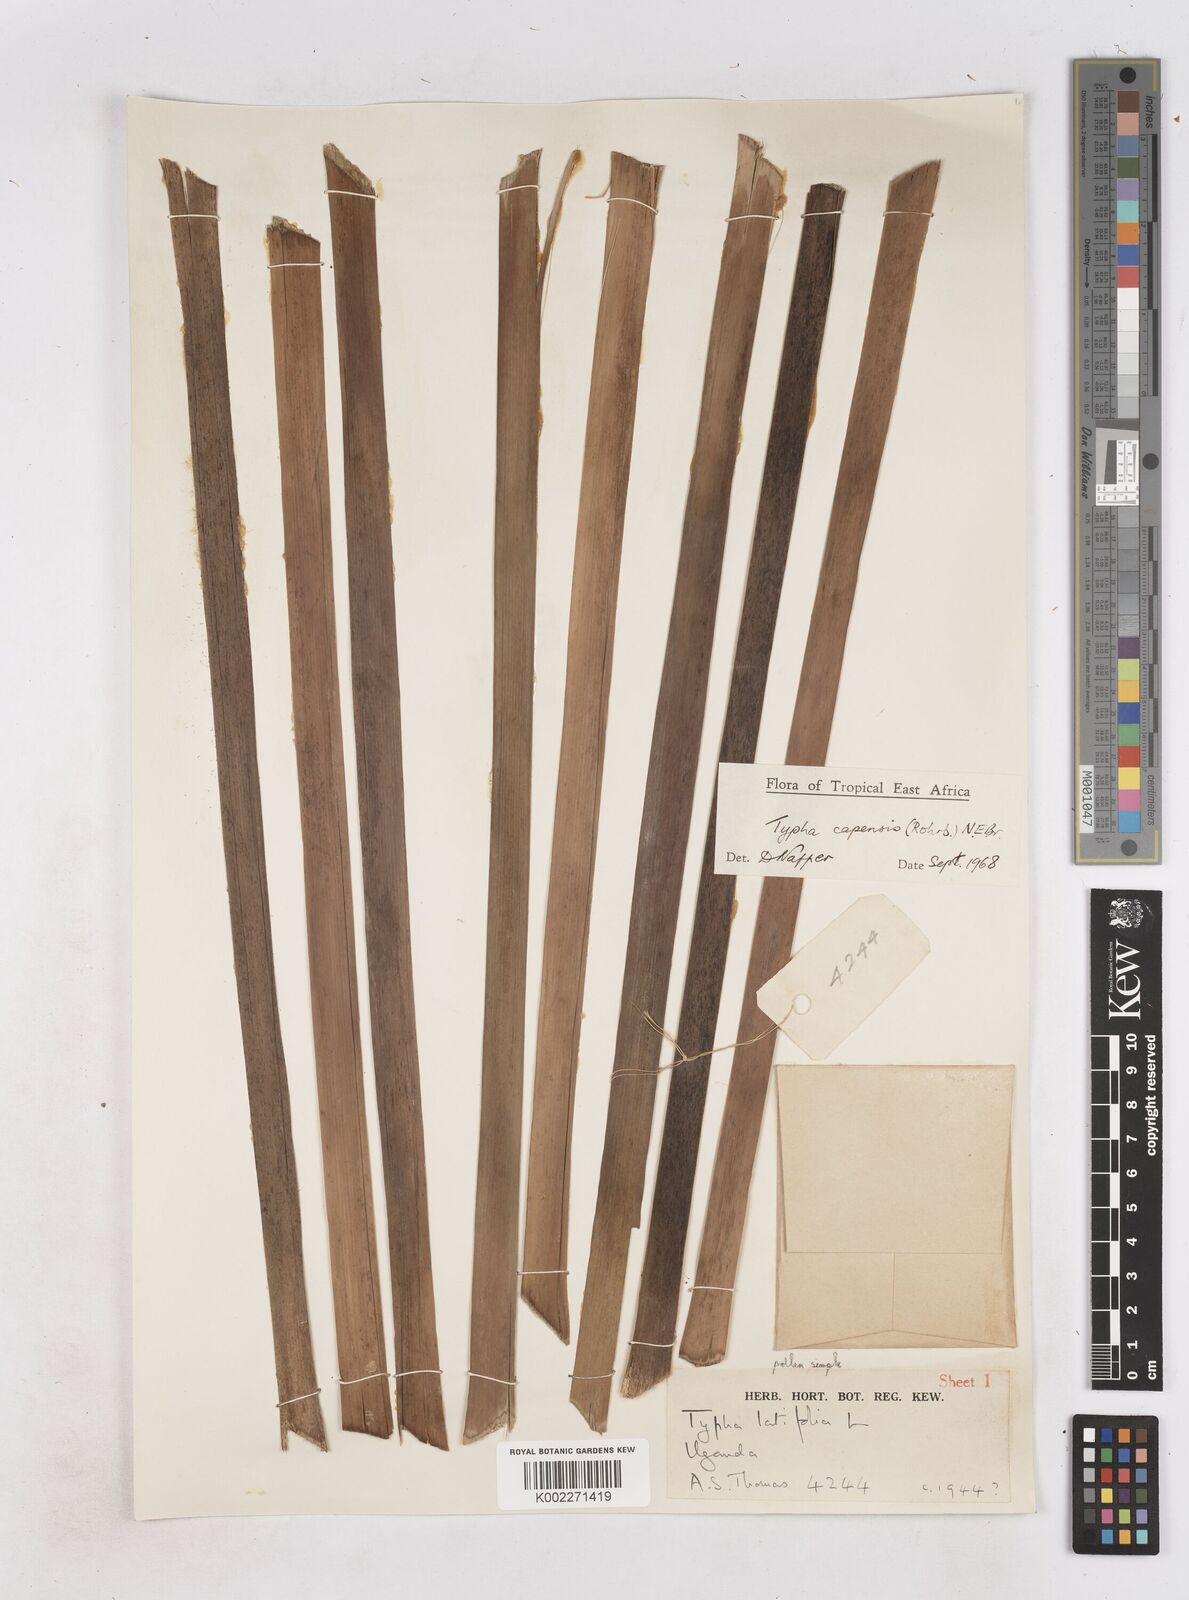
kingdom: Plantae
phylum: Tracheophyta
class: Liliopsida
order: Poales
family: Typhaceae
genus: Typha
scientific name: Typha capensis
